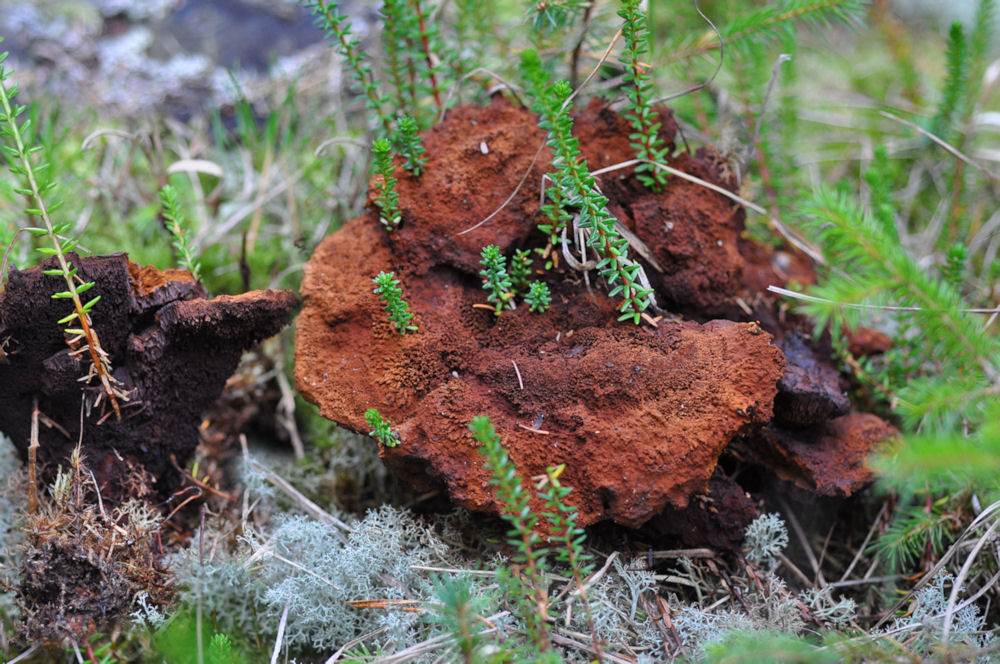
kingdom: Fungi
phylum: Basidiomycota
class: Agaricomycetes
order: Polyporales
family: Laetiporaceae
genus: Phaeolus
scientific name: Phaeolus schweinitzii
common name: brunporesvamp
